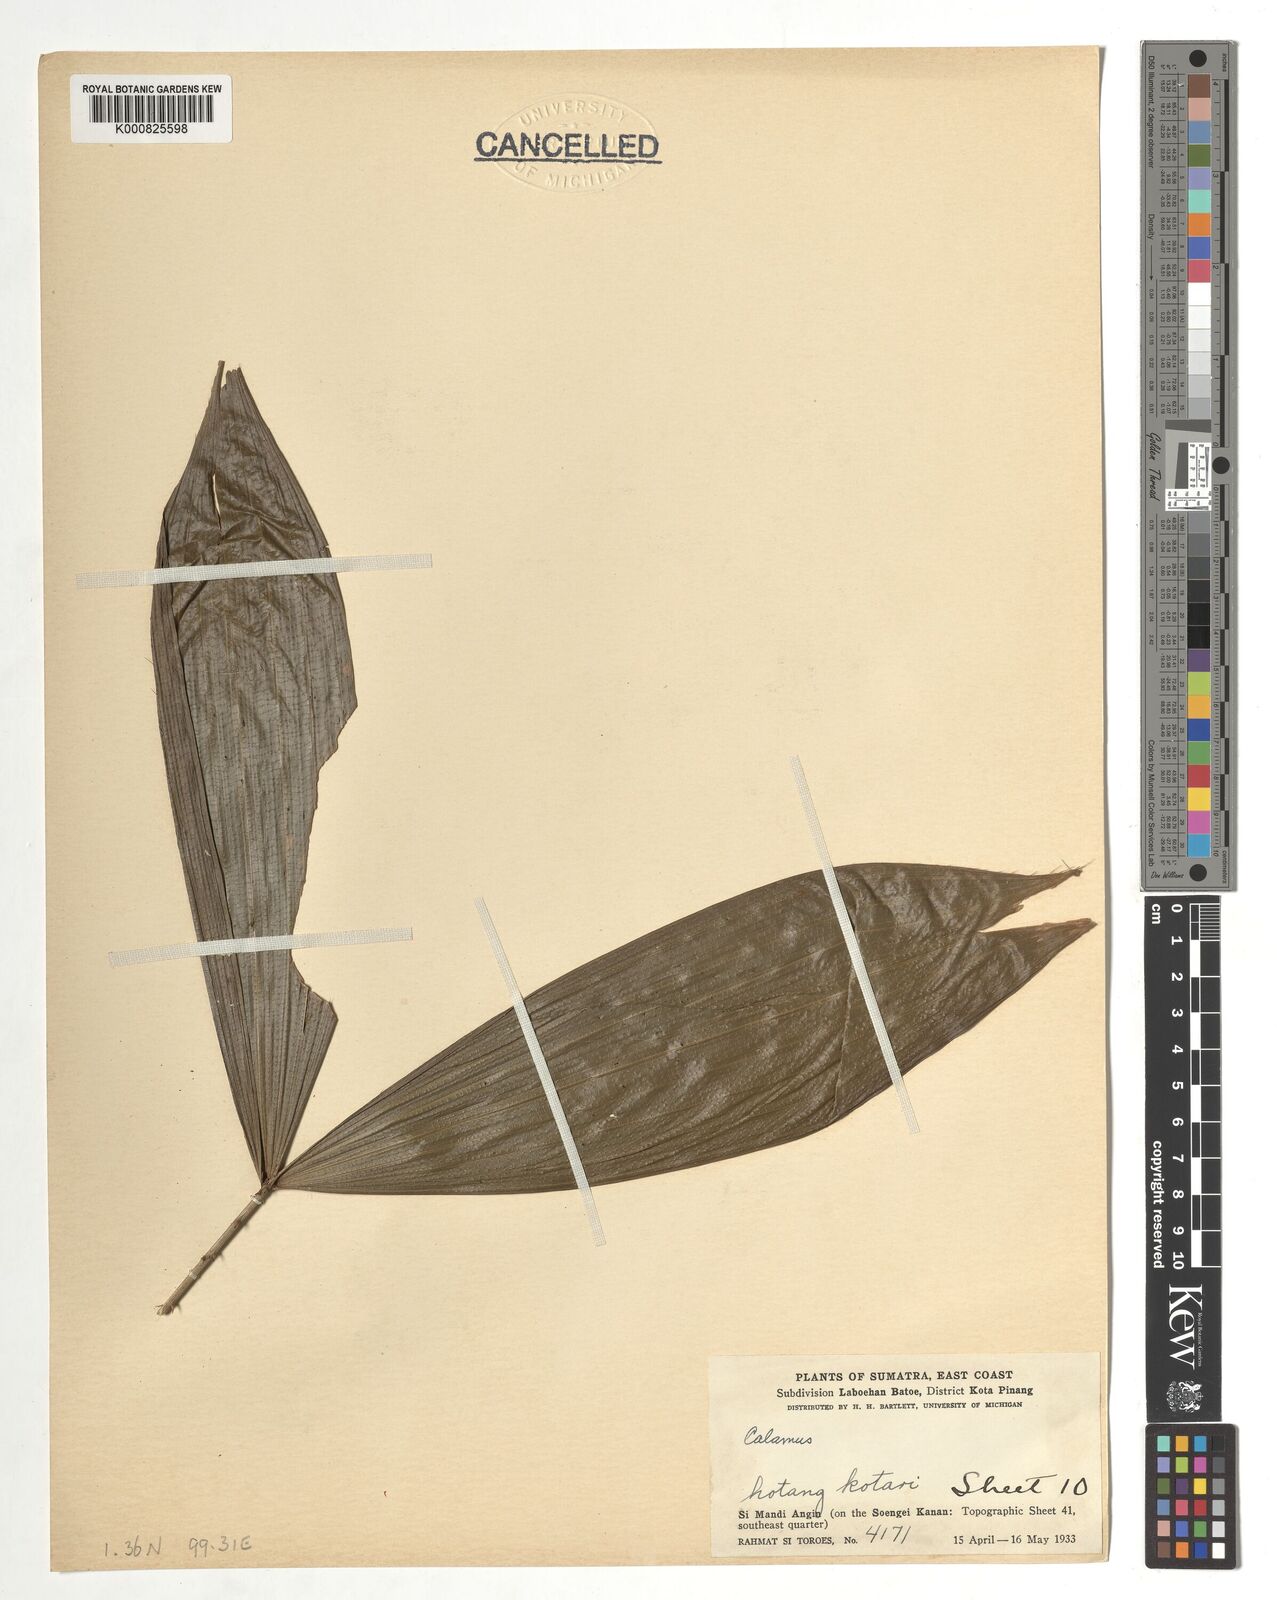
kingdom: Plantae
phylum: Tracheophyta
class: Liliopsida
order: Arecales
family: Arecaceae
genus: Calamus
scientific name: Calamus
